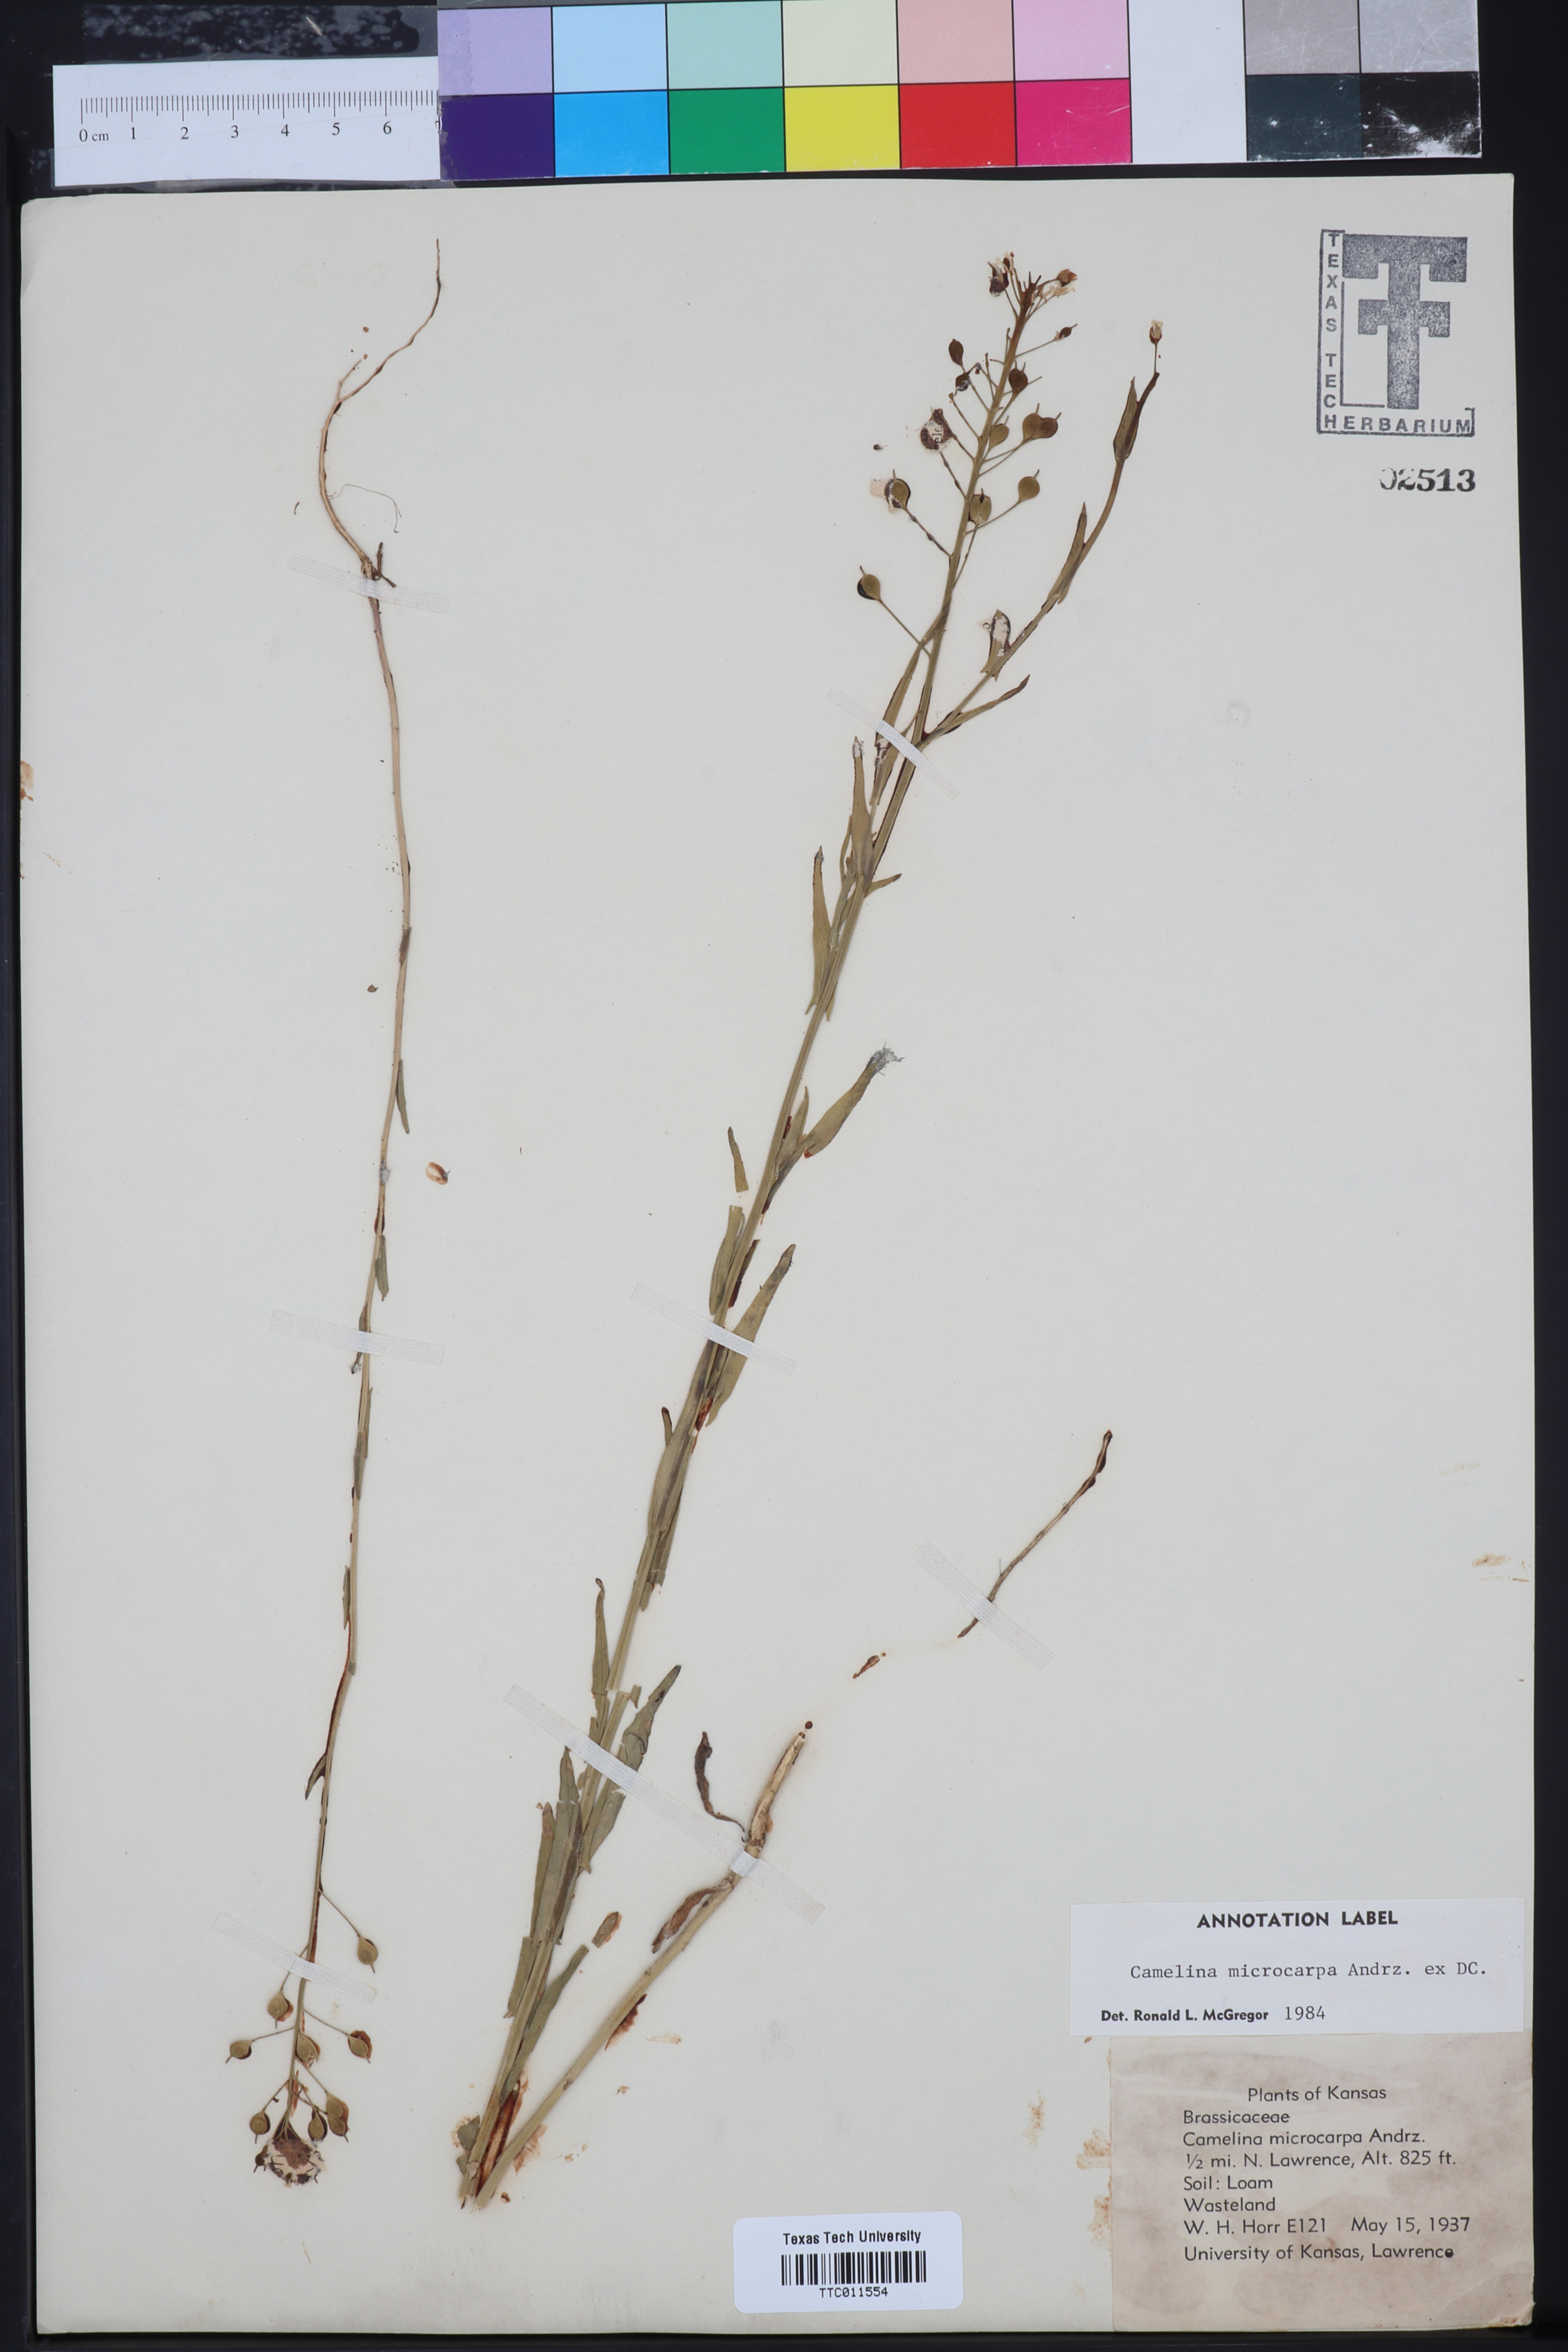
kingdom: Plantae
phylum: Tracheophyta
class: Magnoliopsida
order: Brassicales
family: Brassicaceae
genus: Camelina
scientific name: Camelina microcarpa
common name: Lesser gold-of-pleasure
